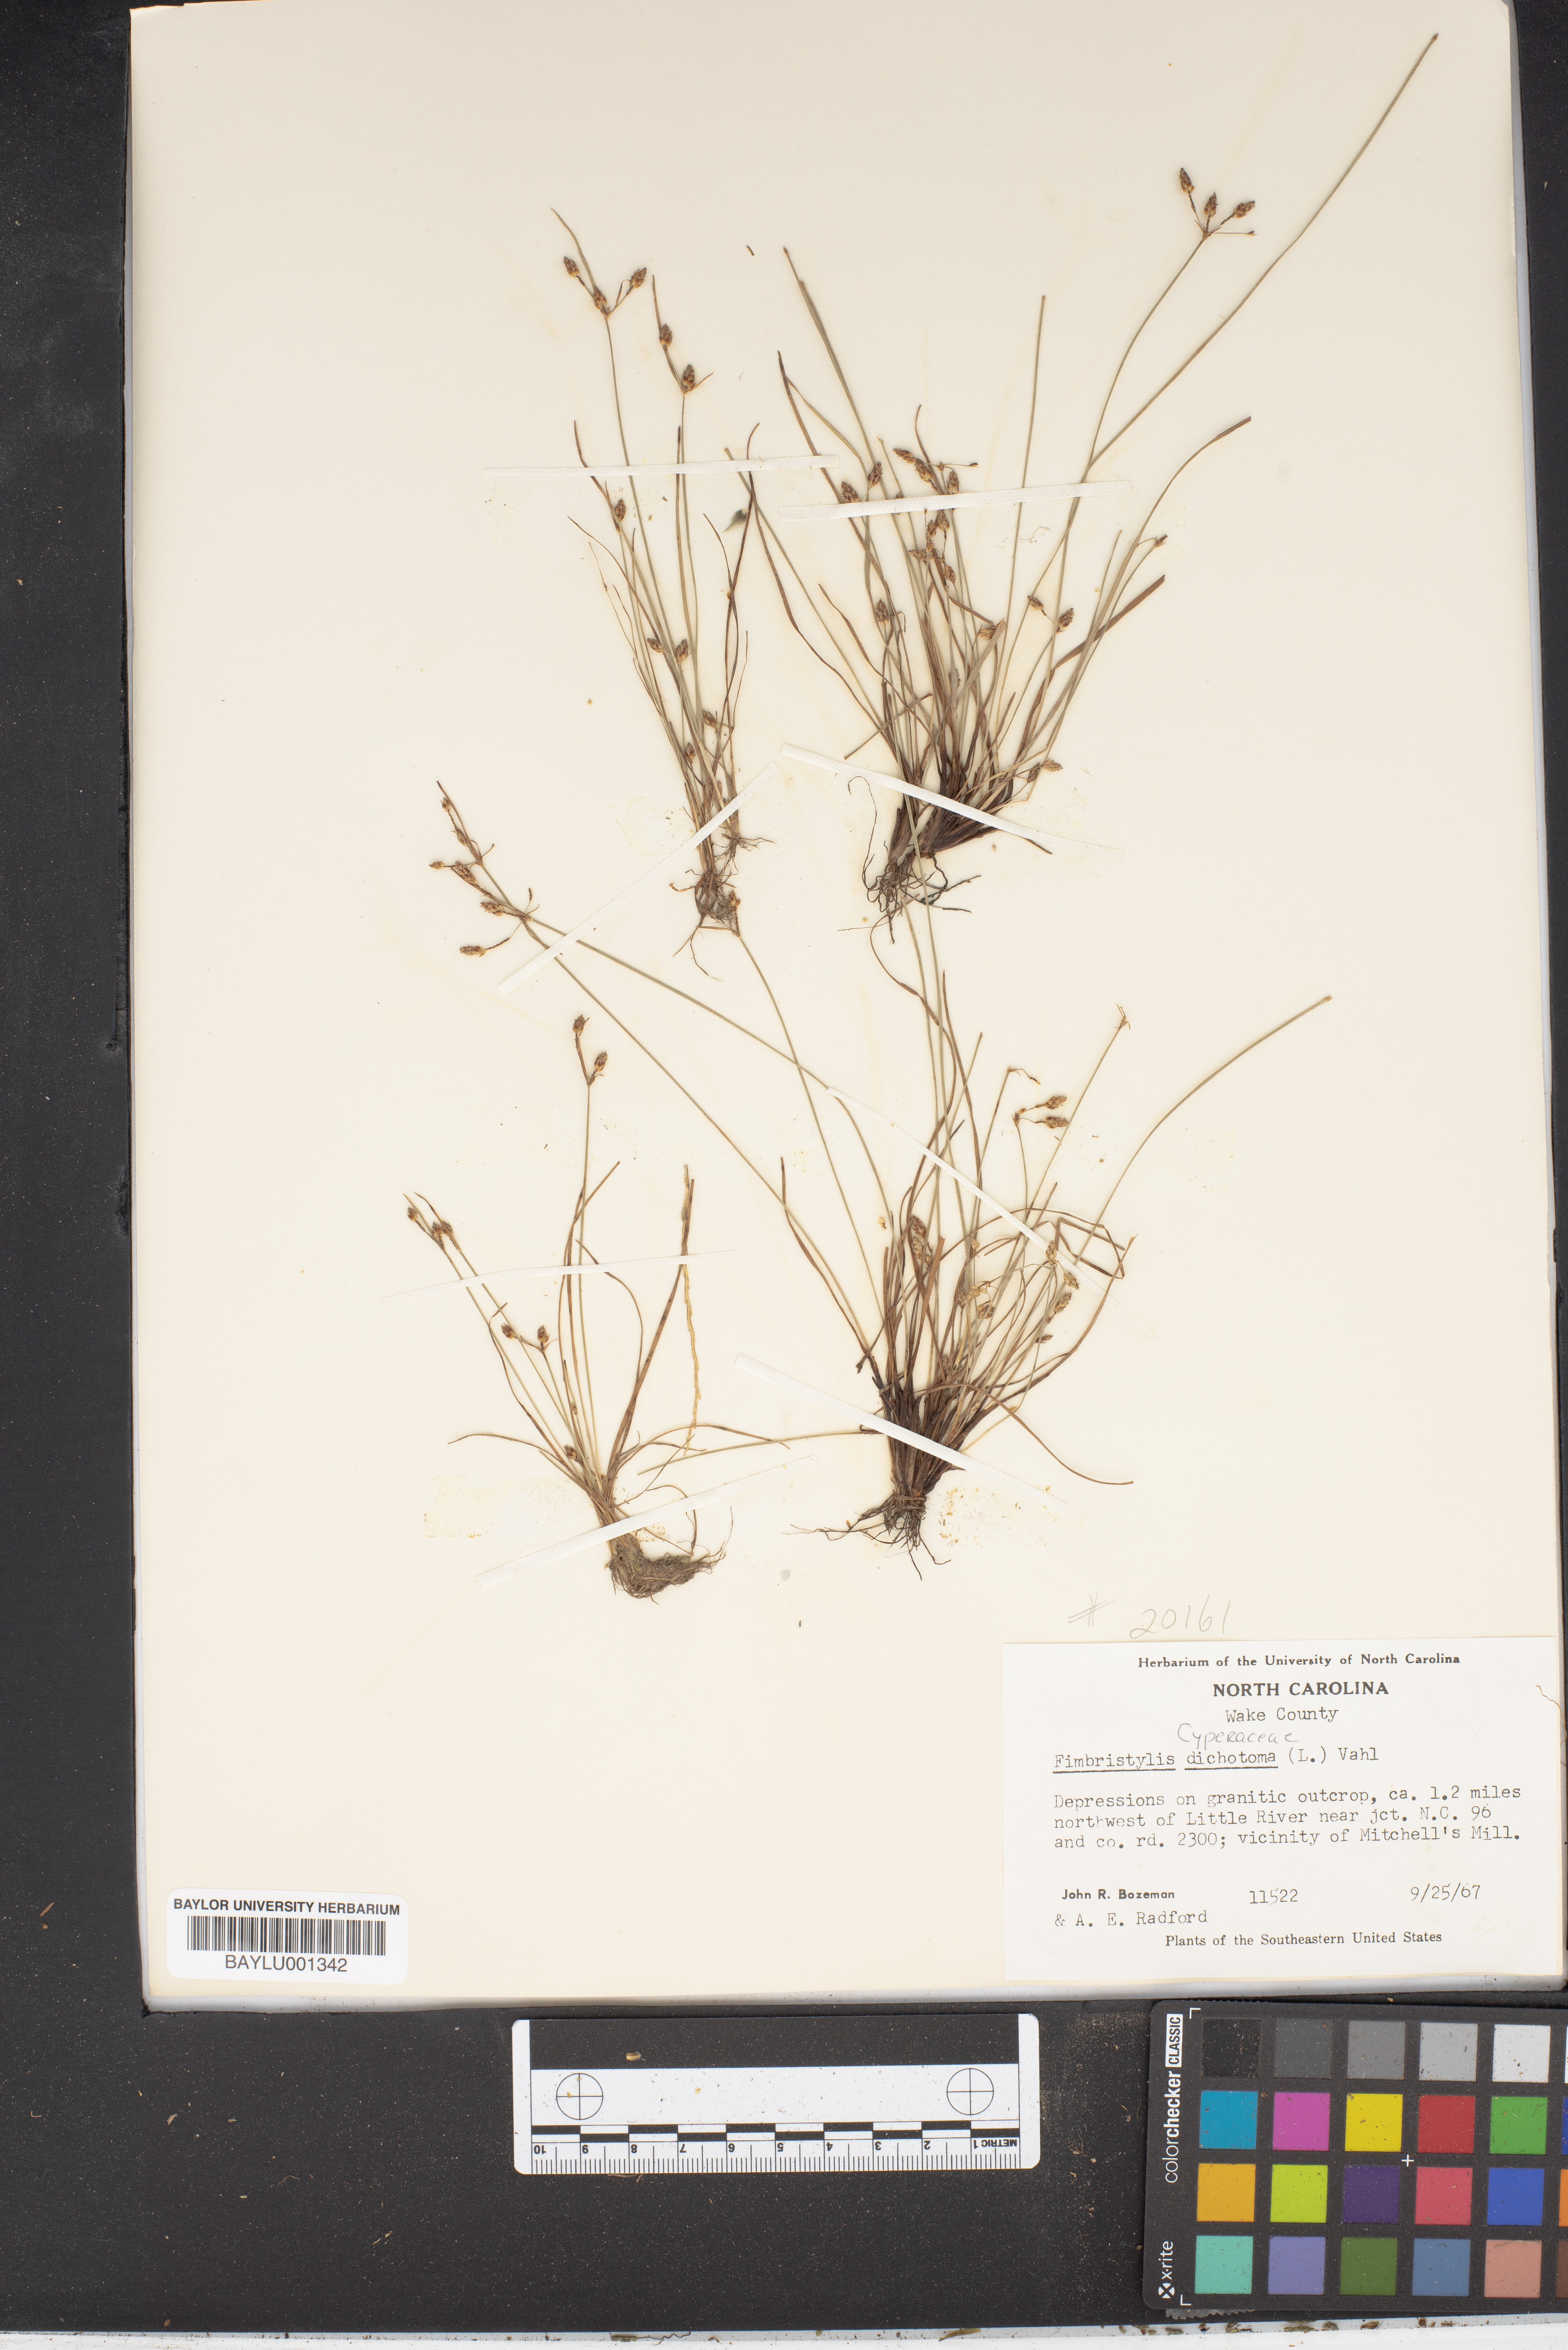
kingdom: Plantae
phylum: Tracheophyta
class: Liliopsida
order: Poales
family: Cyperaceae
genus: Fimbristylis
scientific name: Fimbristylis dichotoma
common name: Forked fimbry
